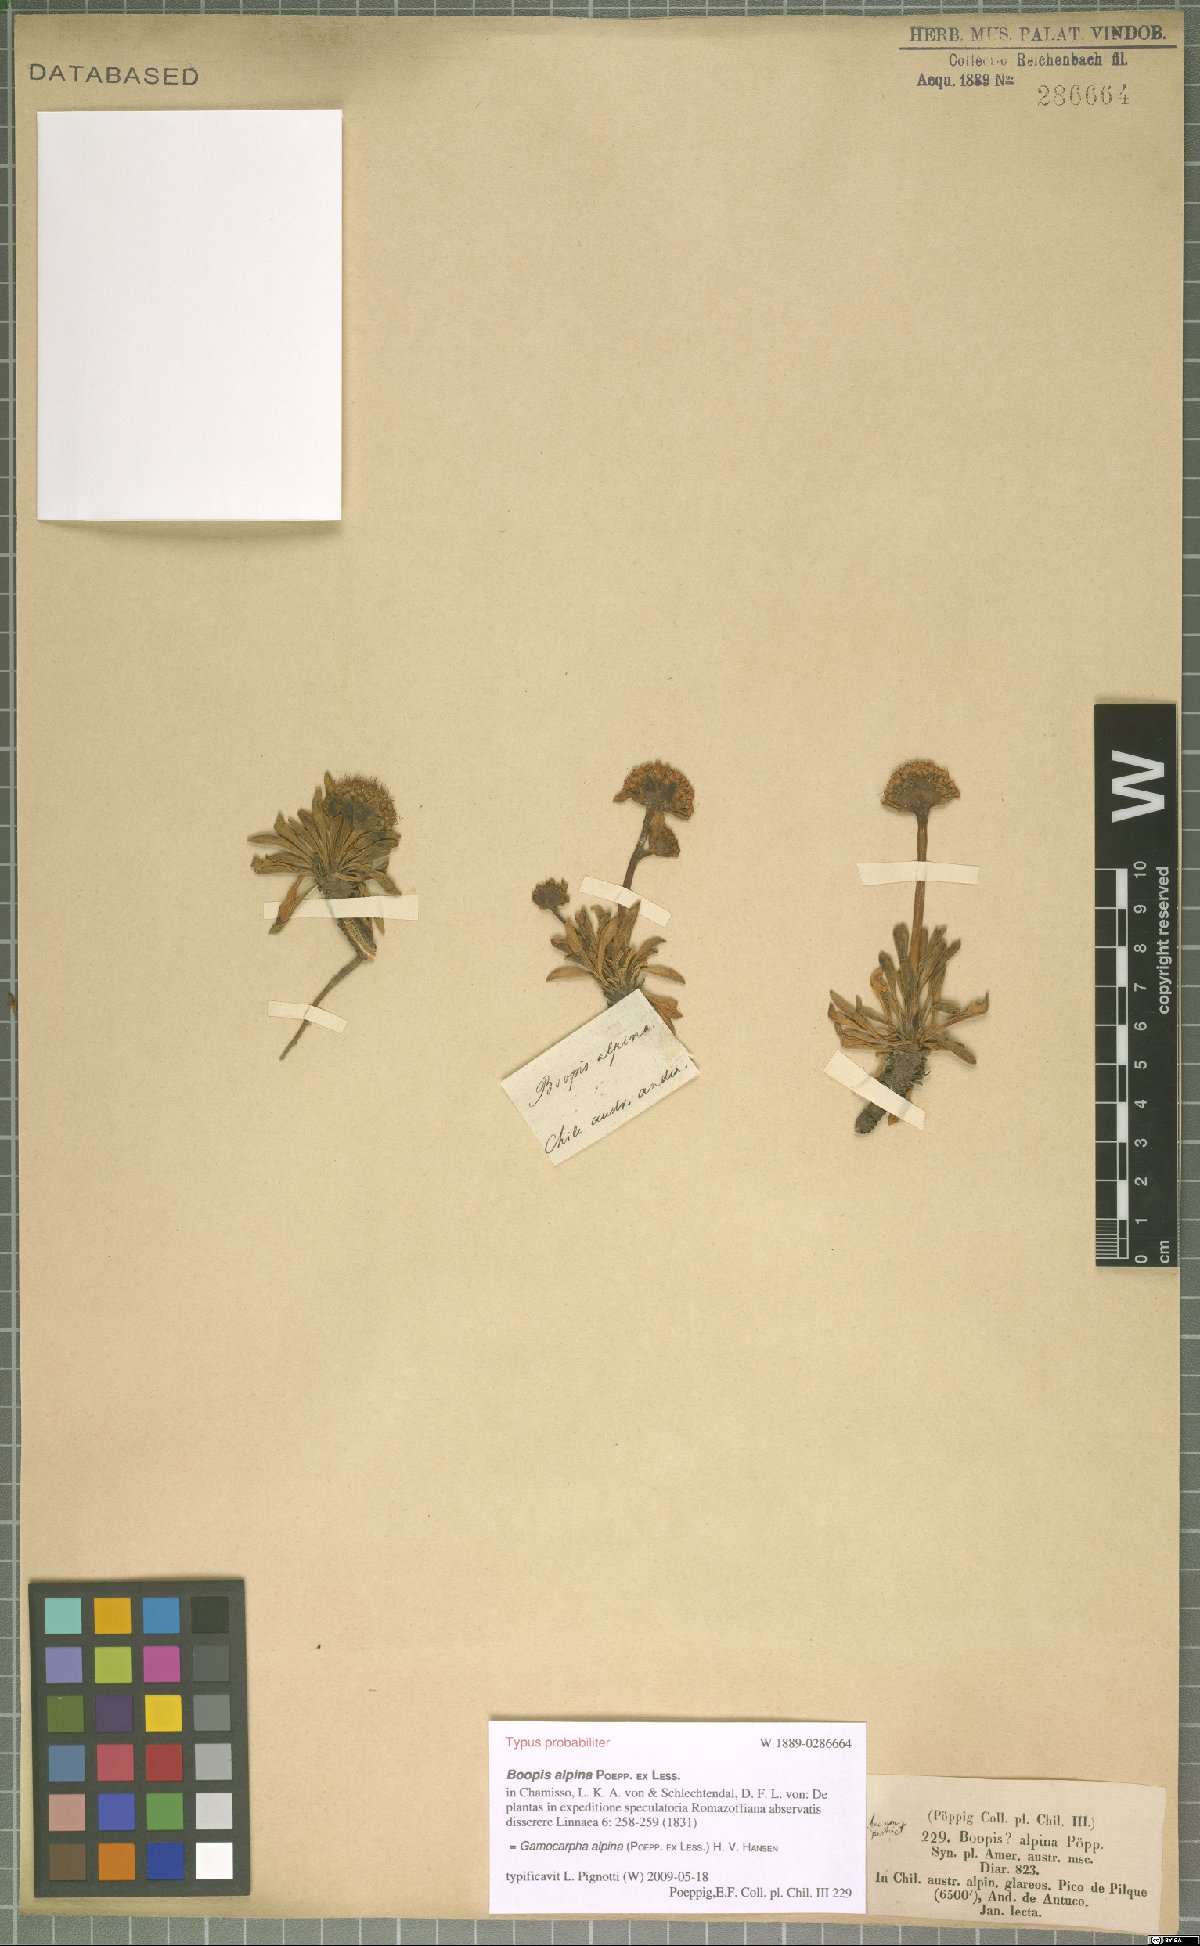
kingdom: Plantae
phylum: Tracheophyta
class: Magnoliopsida
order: Asterales
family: Calyceraceae
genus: Gamocarpha
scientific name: Gamocarpha alpina
